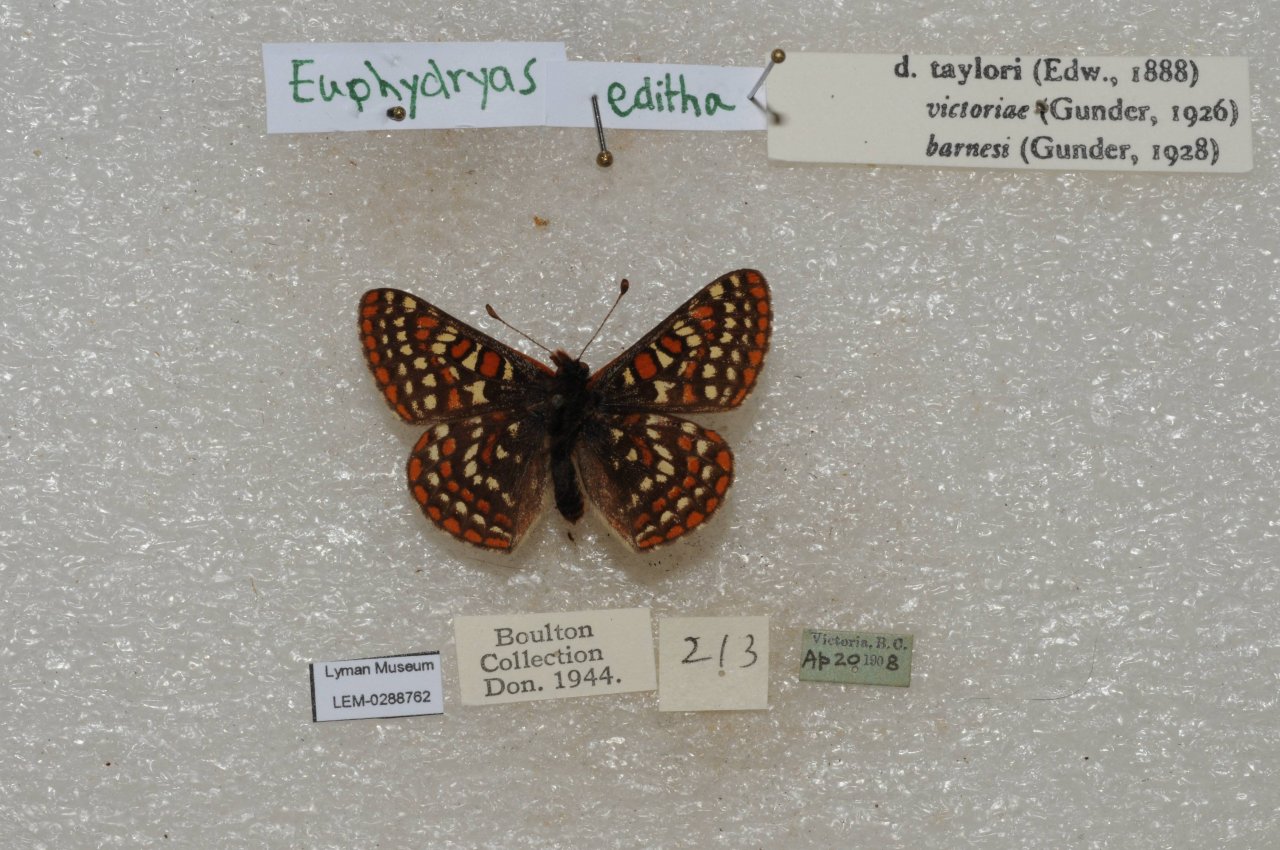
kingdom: Animalia
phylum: Arthropoda
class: Insecta
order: Lepidoptera
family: Nymphalidae
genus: Occidryas
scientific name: Occidryas editha
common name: Edith's Checkerspot
